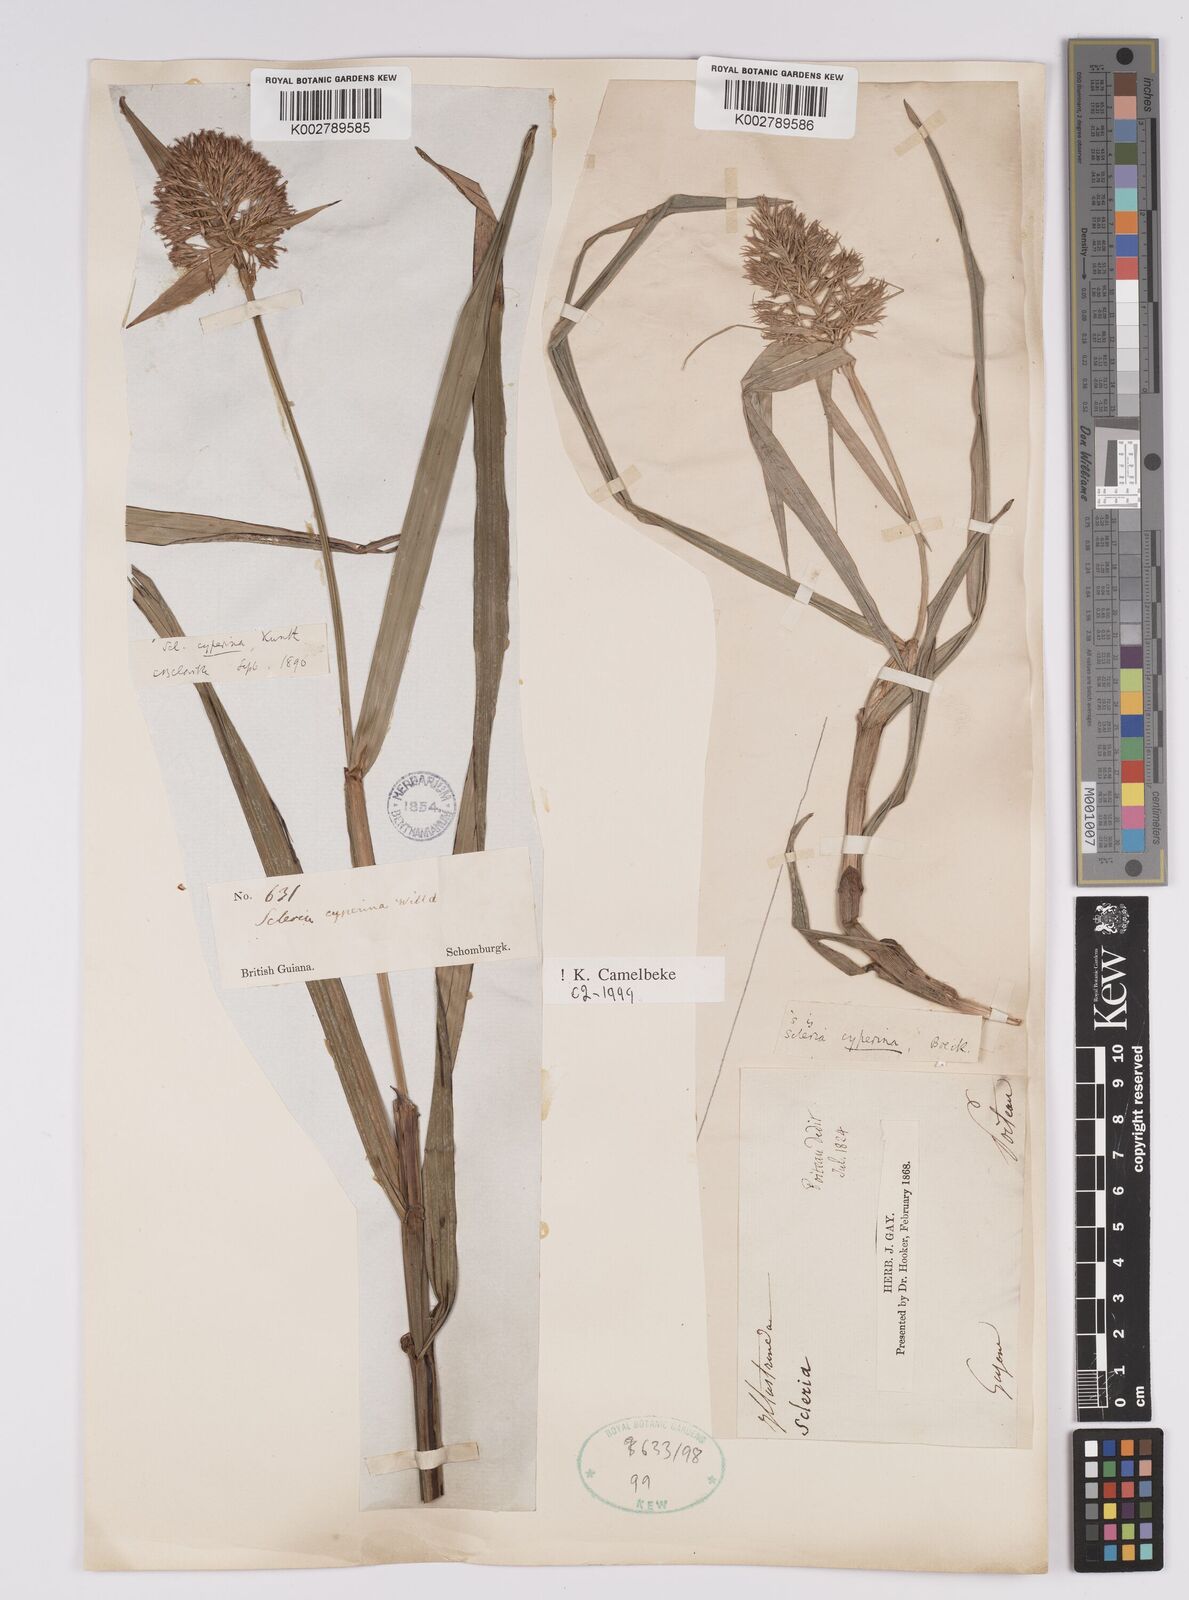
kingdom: Plantae
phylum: Tracheophyta
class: Liliopsida
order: Poales
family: Cyperaceae
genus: Scleria
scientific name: Scleria cyperina
